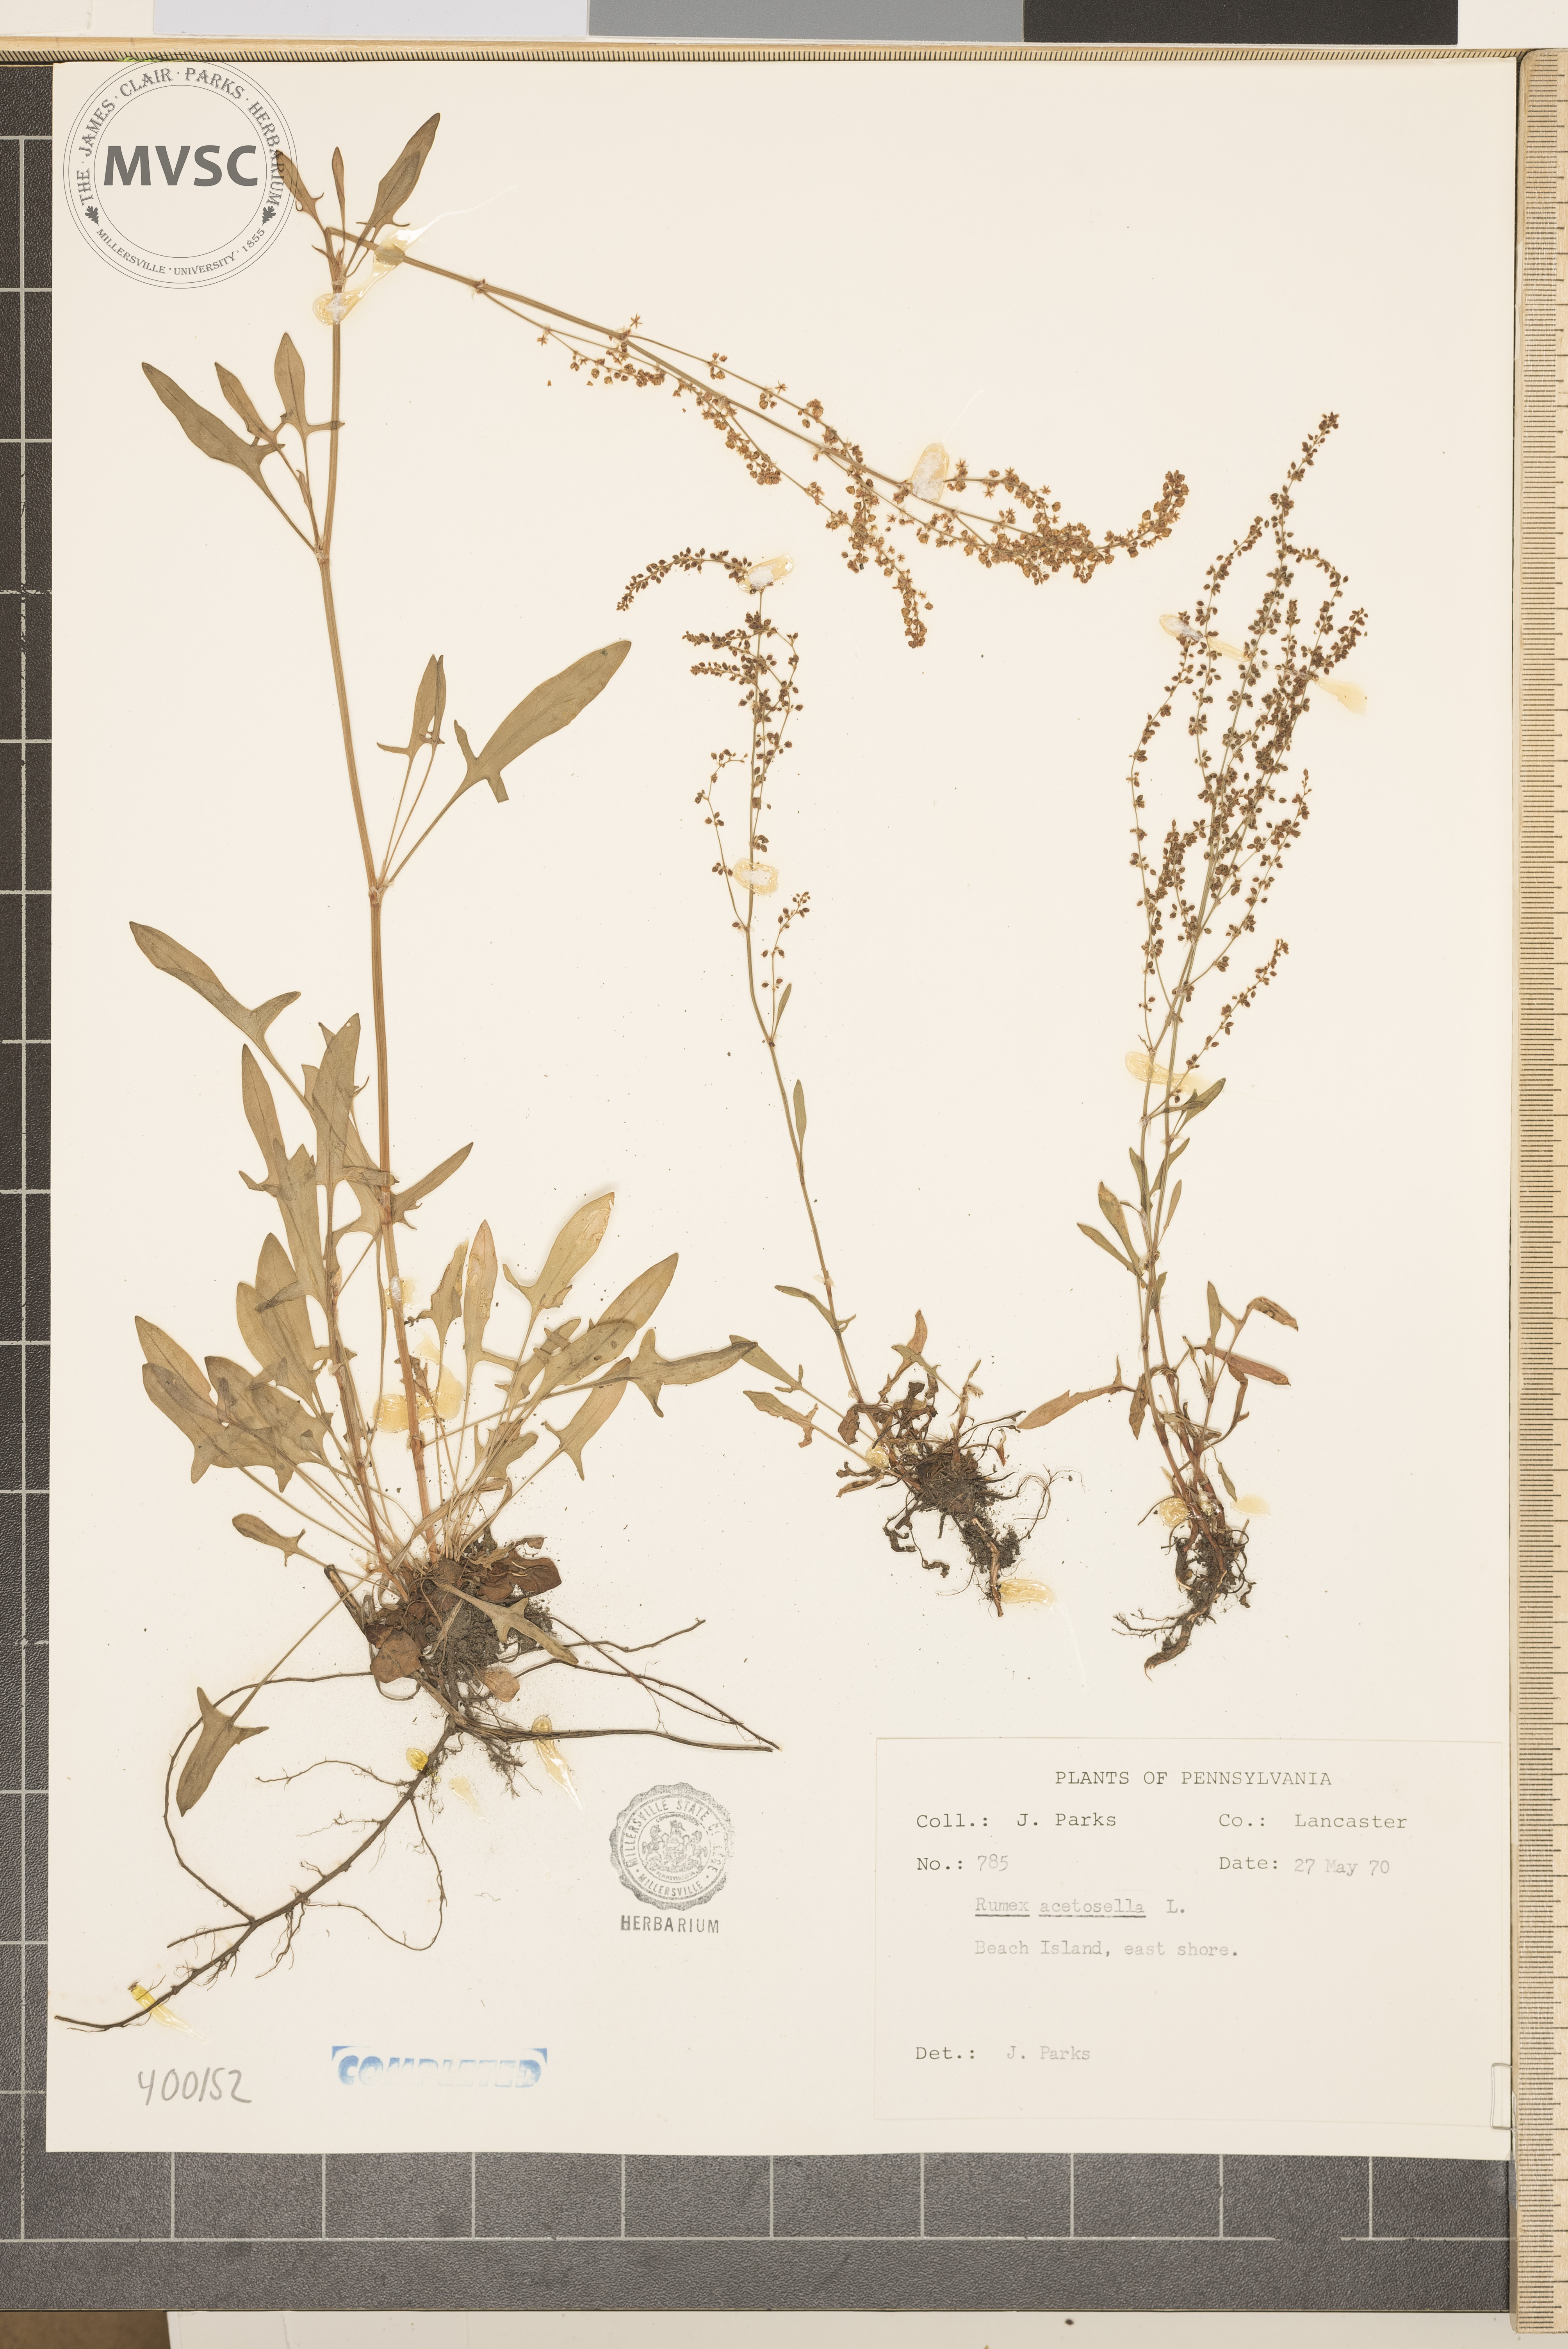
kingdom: Plantae
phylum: Tracheophyta
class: Magnoliopsida
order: Caryophyllales
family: Polygonaceae
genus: Rumex
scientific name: Rumex acetosella
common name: dock
